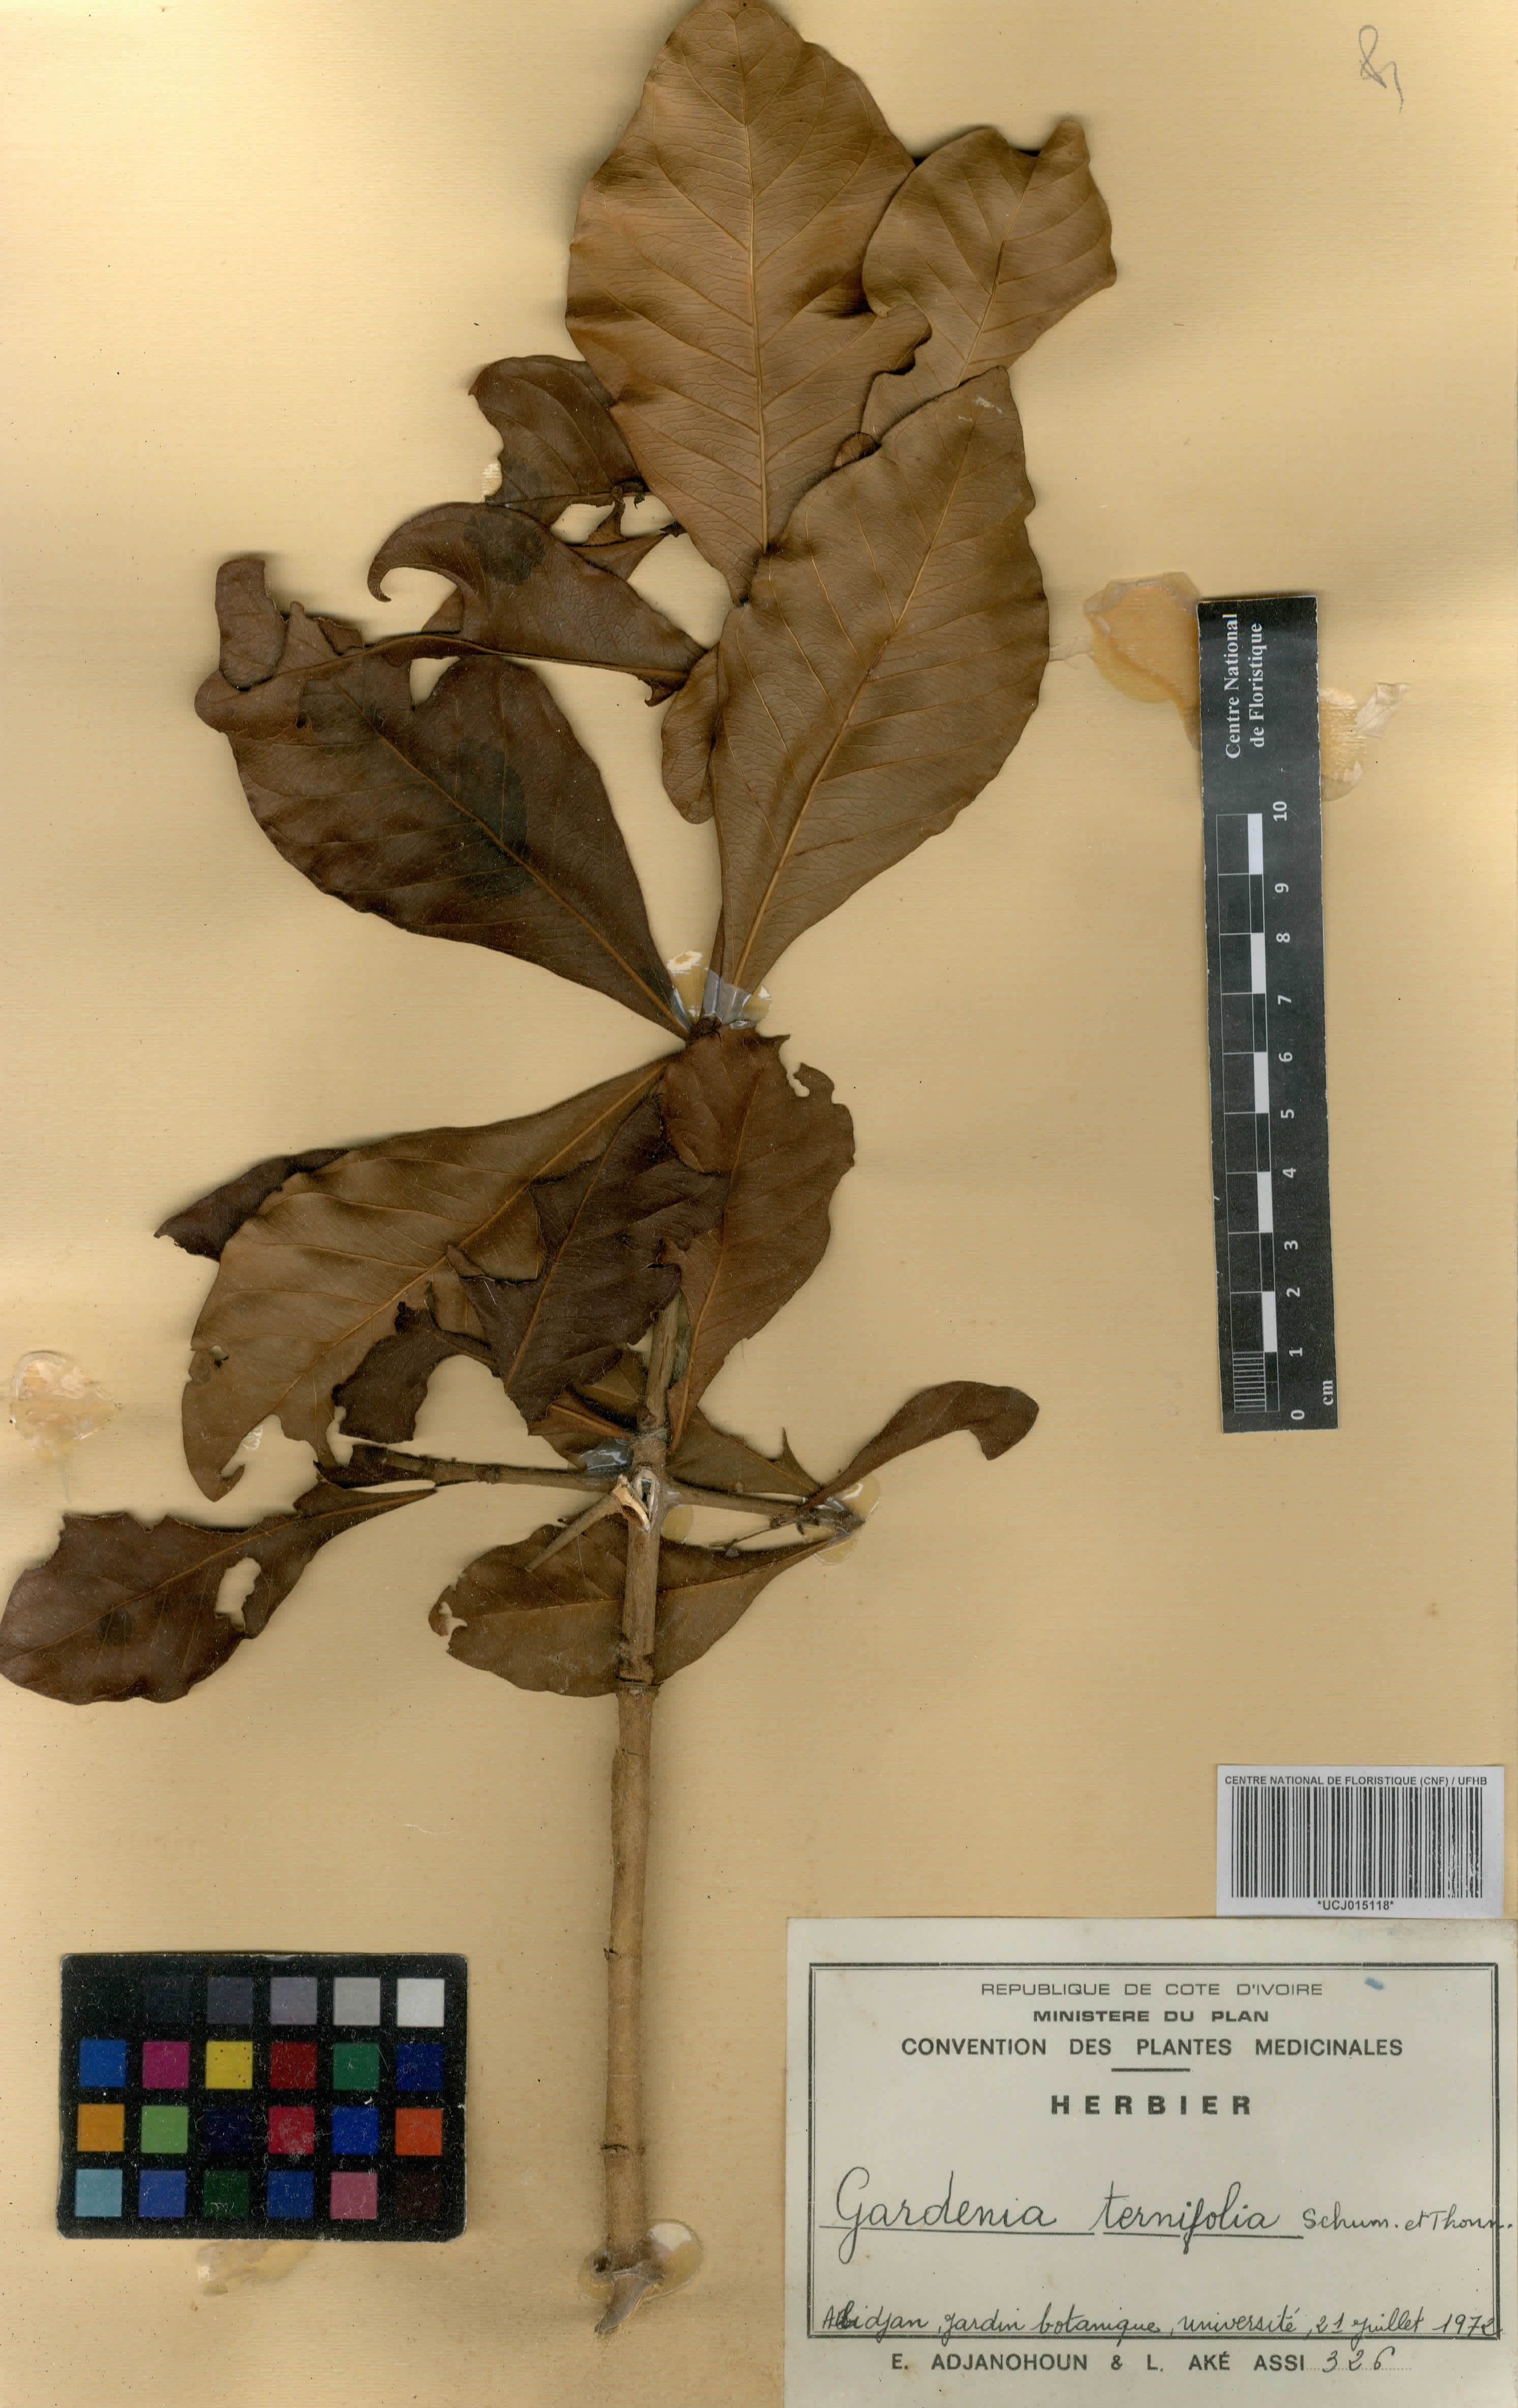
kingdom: Plantae
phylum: Tracheophyta
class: Magnoliopsida
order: Gentianales
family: Rubiaceae
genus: Gardenia
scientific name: Gardenia ternifolia
